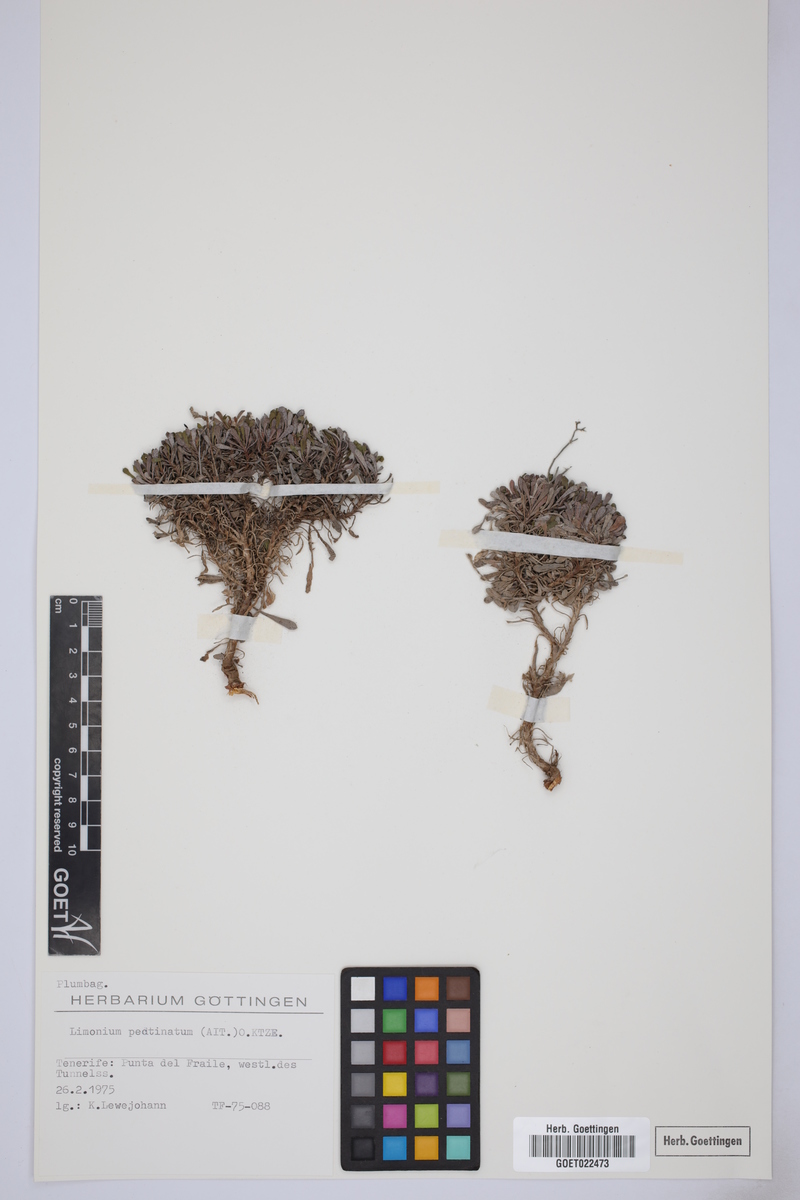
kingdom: Plantae
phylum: Tracheophyta
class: Magnoliopsida
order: Caryophyllales
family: Plumbaginaceae
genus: Limonium
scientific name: Limonium pectinatum
